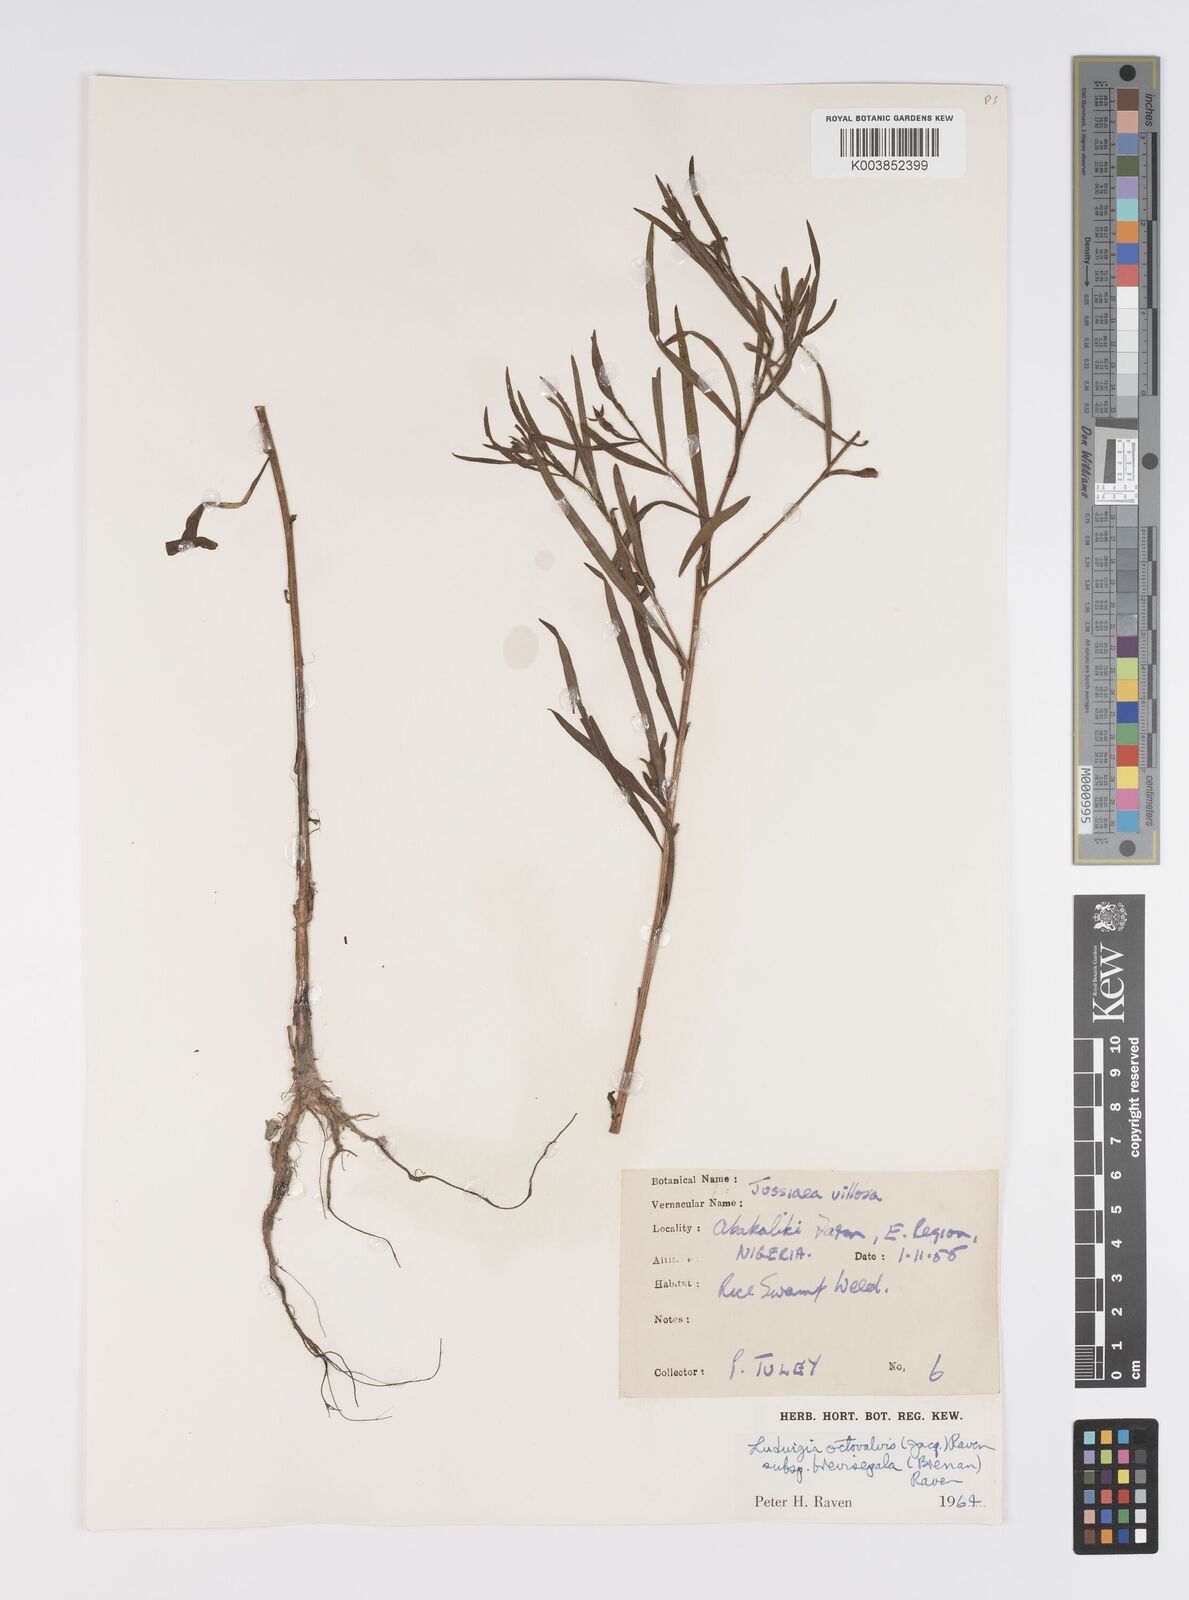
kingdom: Plantae
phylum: Tracheophyta
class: Magnoliopsida
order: Myrtales
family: Onagraceae
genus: Ludwigia
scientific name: Ludwigia octovalvis
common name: Water-primrose
